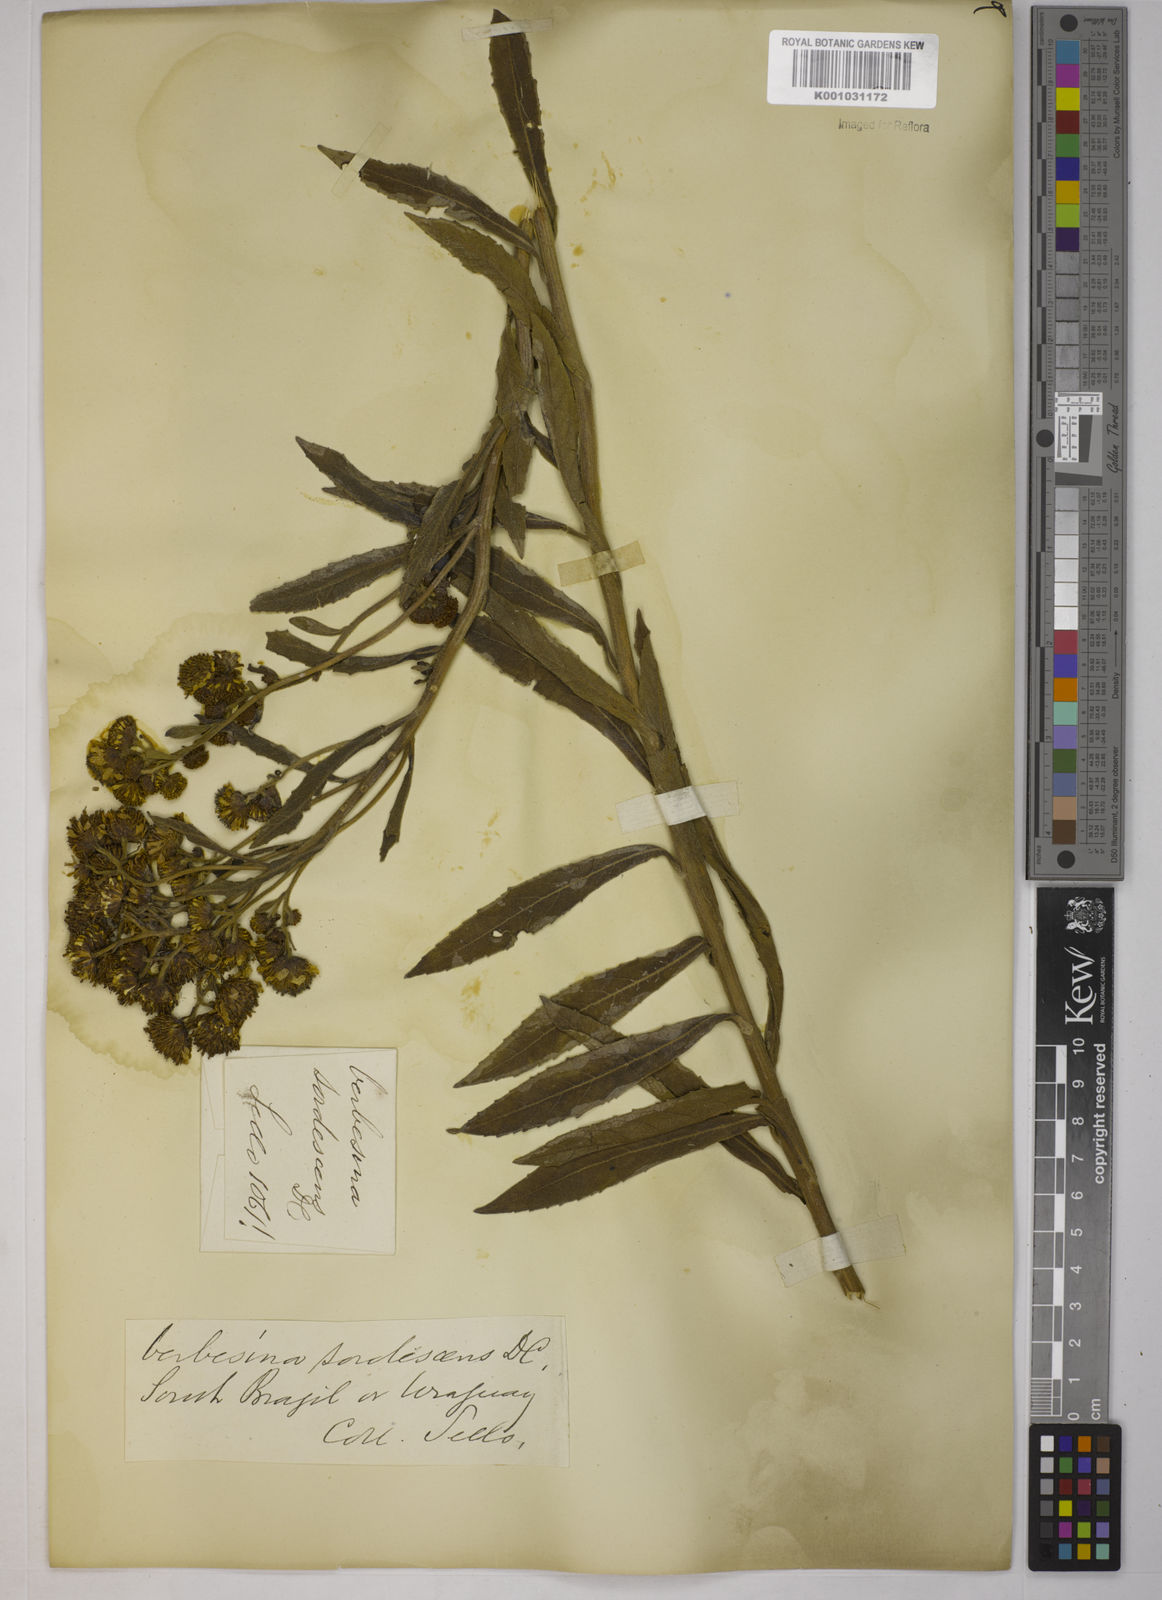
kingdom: Plantae
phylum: Tracheophyta
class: Magnoliopsida
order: Asterales
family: Asteraceae
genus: Verbesina
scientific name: Verbesina sordescens
